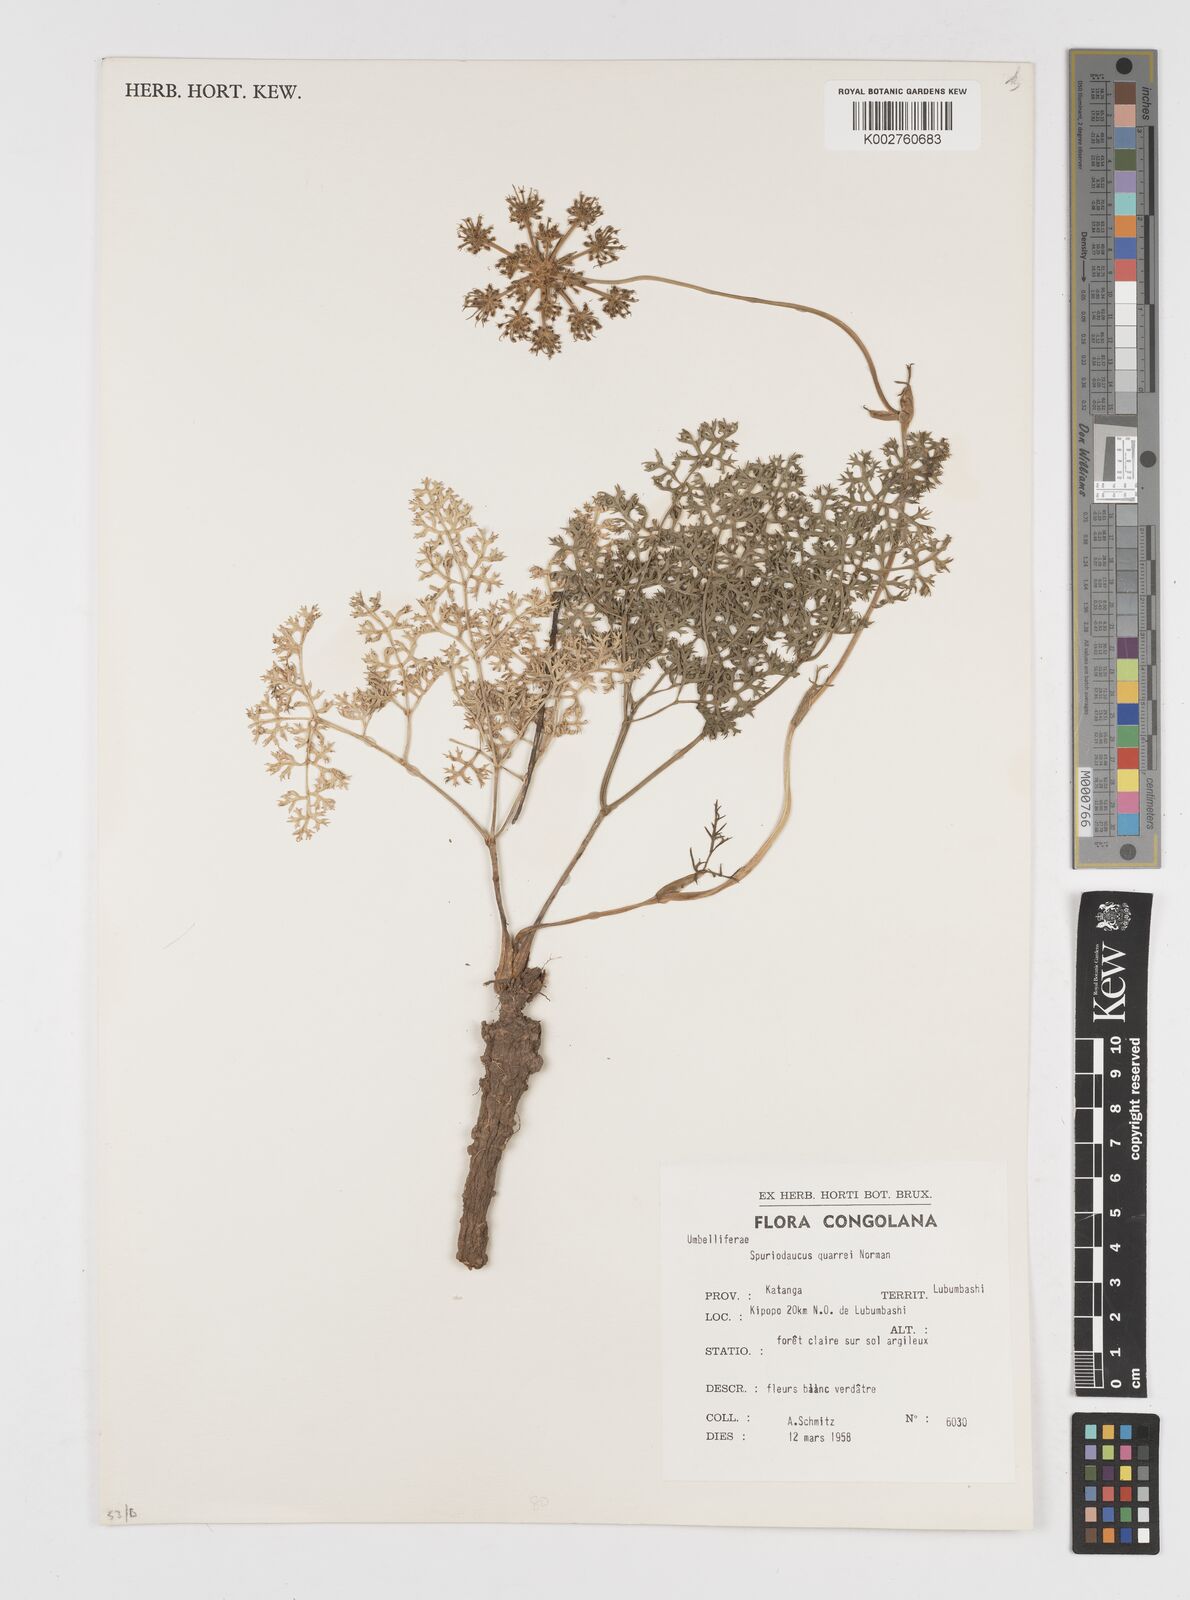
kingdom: Plantae
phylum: Tracheophyta
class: Magnoliopsida
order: Apiales
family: Apiaceae
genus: Physotrichia
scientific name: Physotrichia Spuriodaucus quarrei
